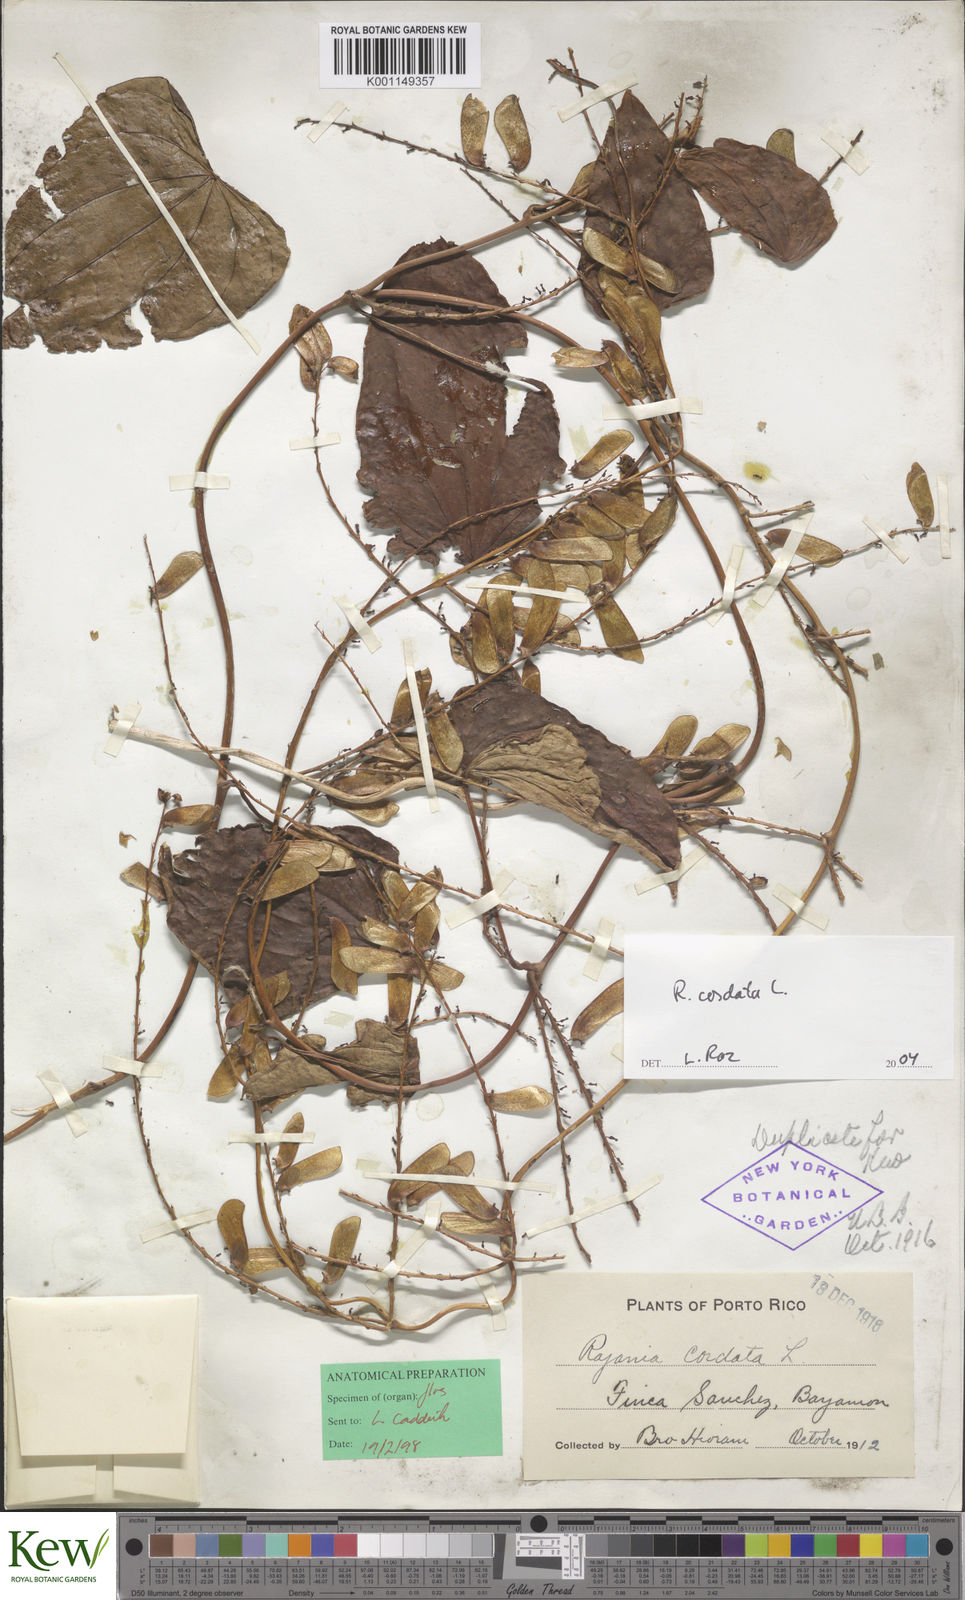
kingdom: Plantae
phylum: Tracheophyta
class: Liliopsida
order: Dioscoreales
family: Dioscoreaceae
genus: Dioscorea
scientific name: Dioscorea
